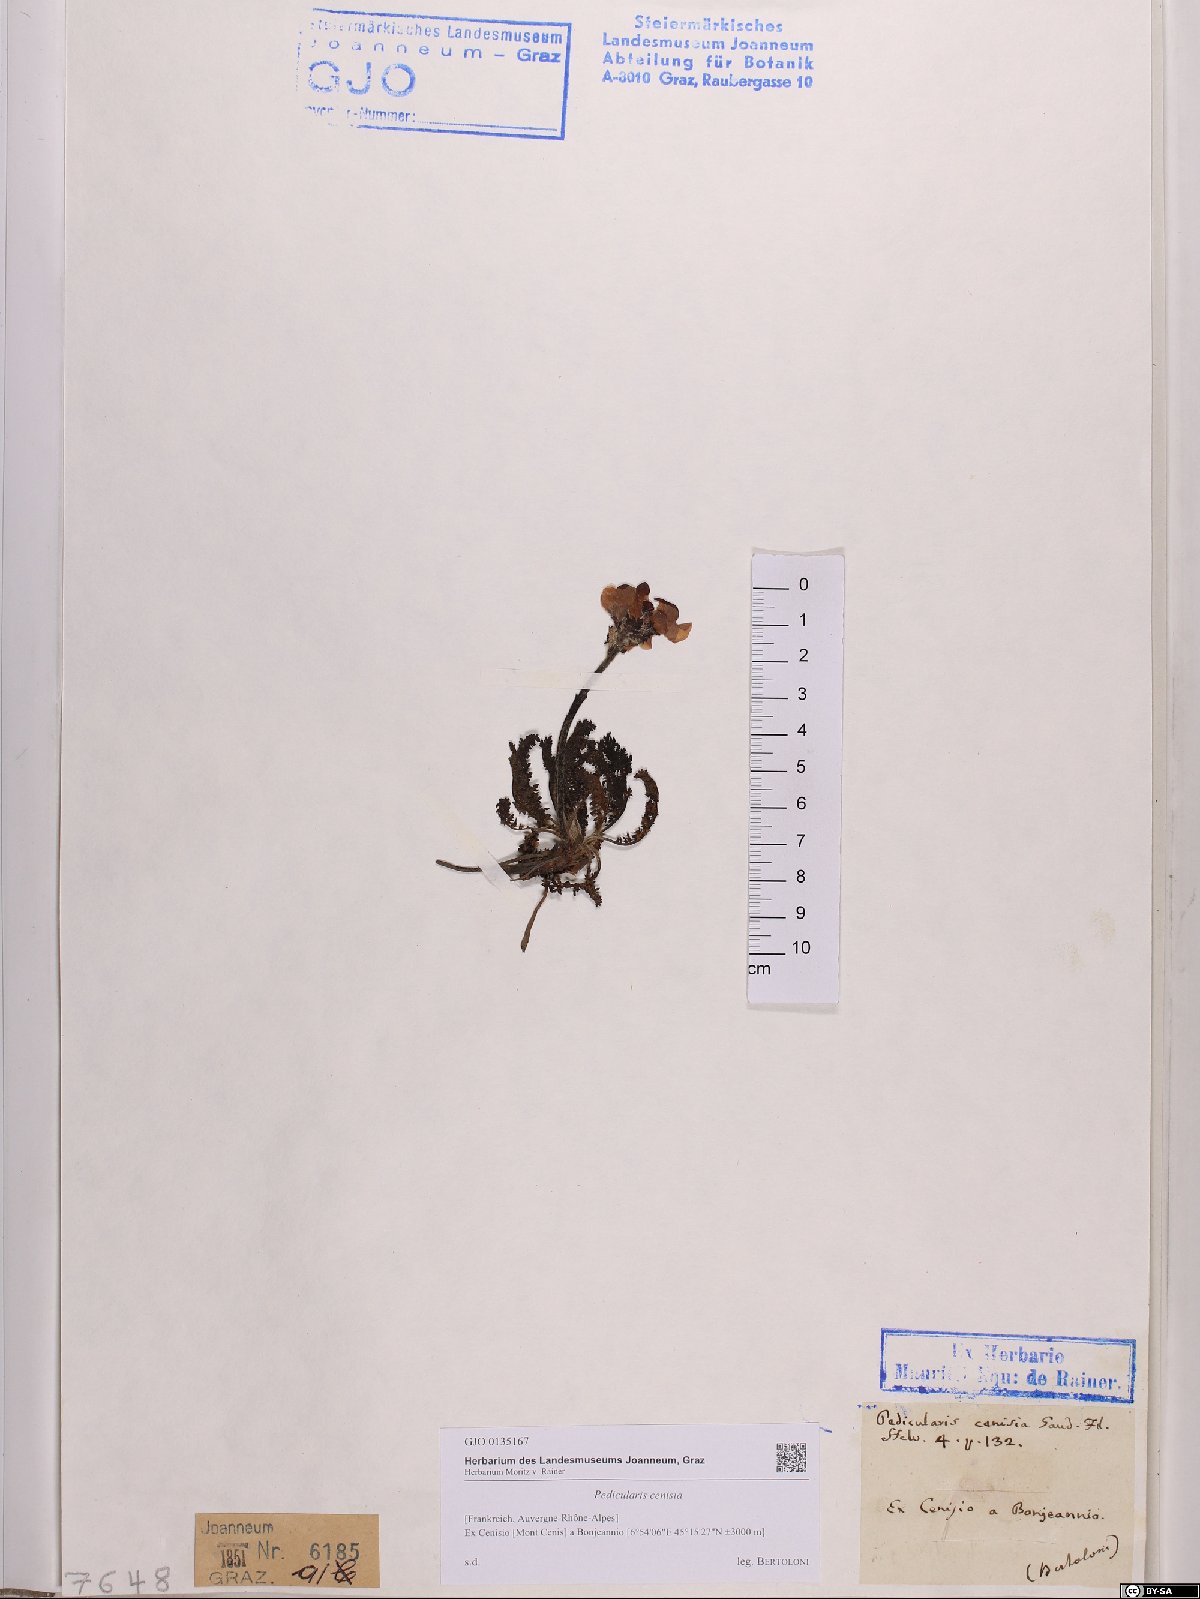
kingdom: Plantae
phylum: Tracheophyta
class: Magnoliopsida
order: Lamiales
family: Orobanchaceae
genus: Pedicularis
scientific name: Pedicularis cenisia
